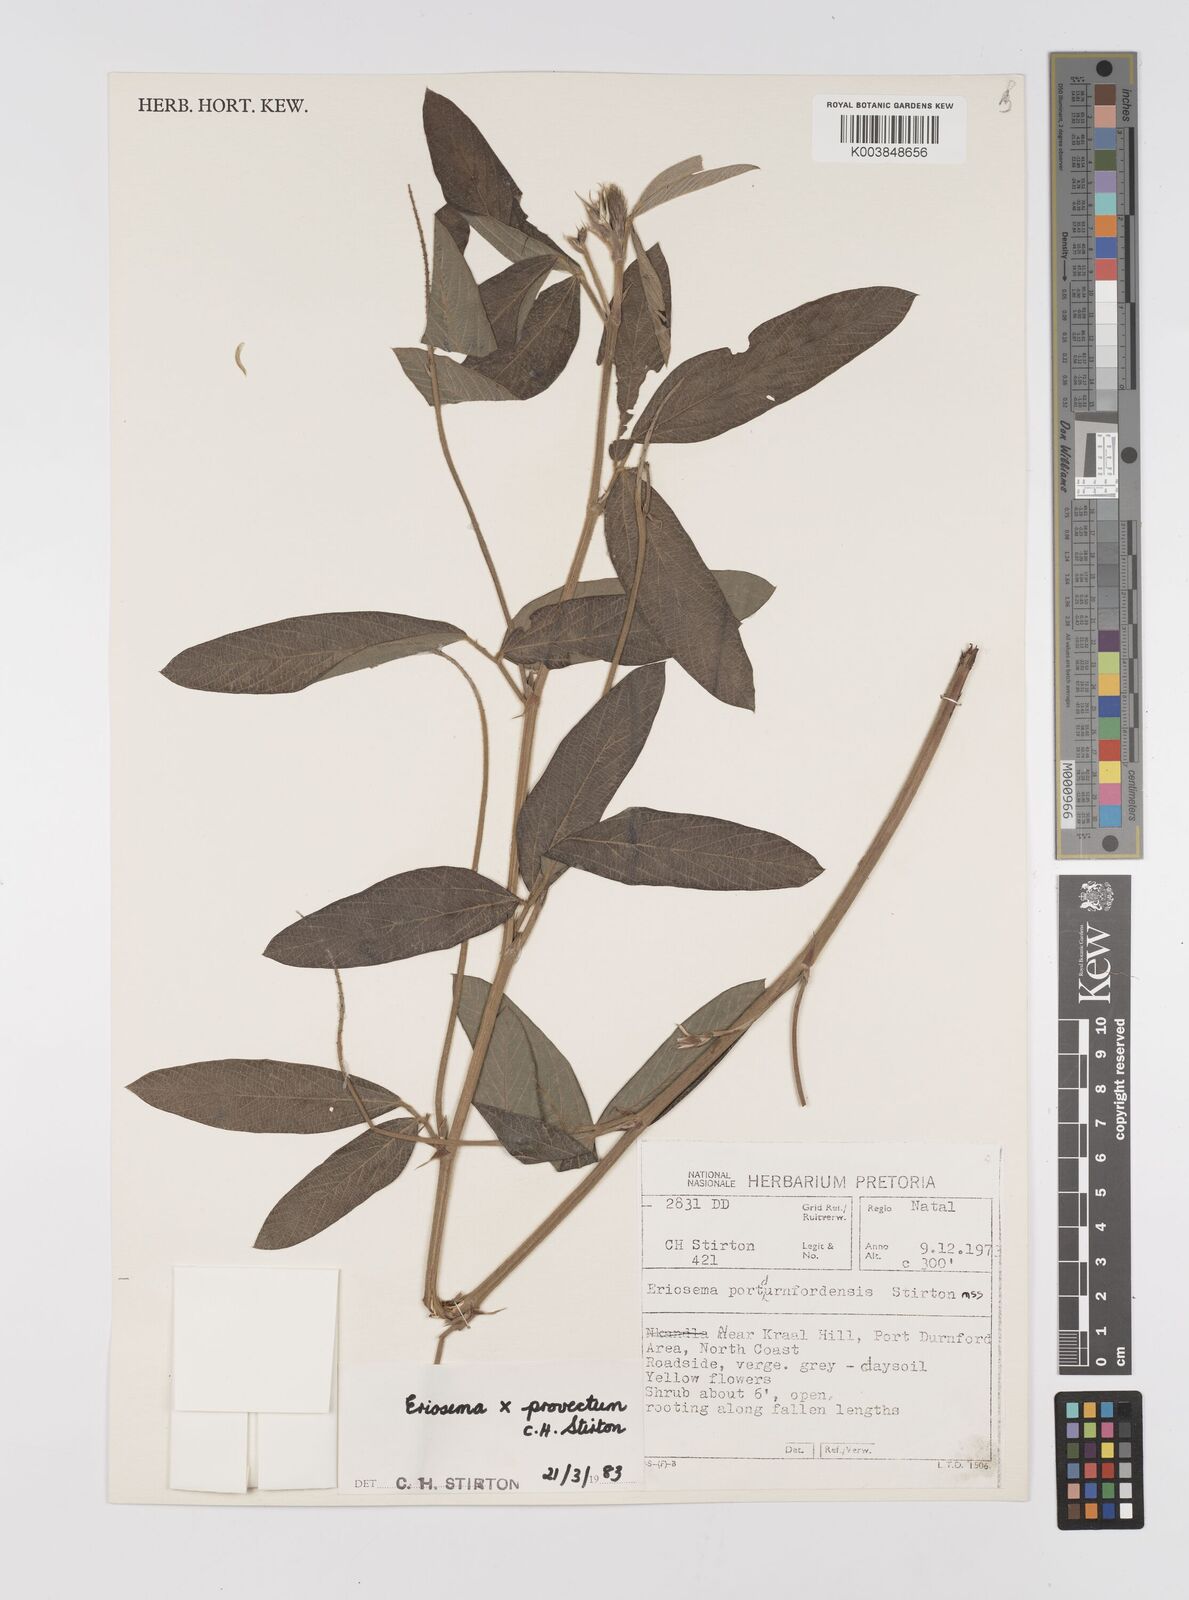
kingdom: Plantae
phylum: Tracheophyta
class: Magnoliopsida
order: Fabales
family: Fabaceae
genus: Eriosema
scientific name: Eriosema provectum
